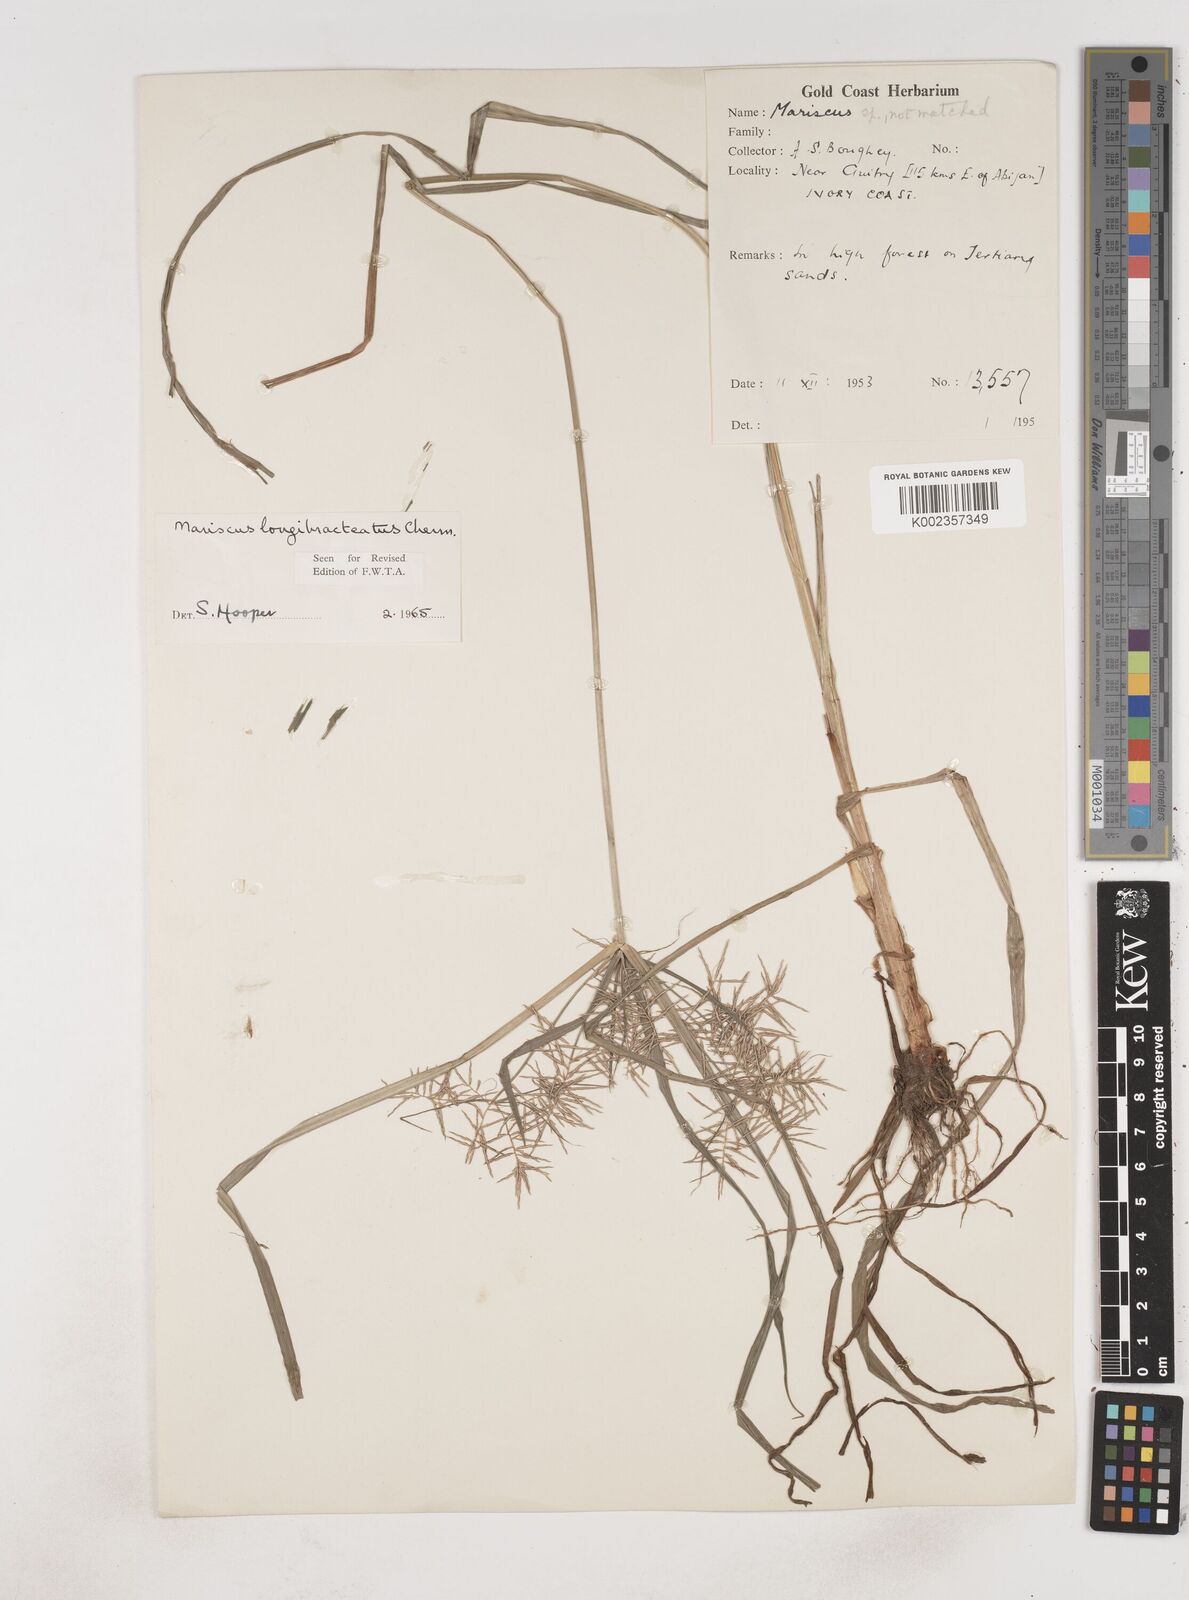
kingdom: Plantae
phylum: Tracheophyta
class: Liliopsida
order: Poales
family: Cyperaceae
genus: Cyperus
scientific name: Cyperus distans
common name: Slender cyperus
